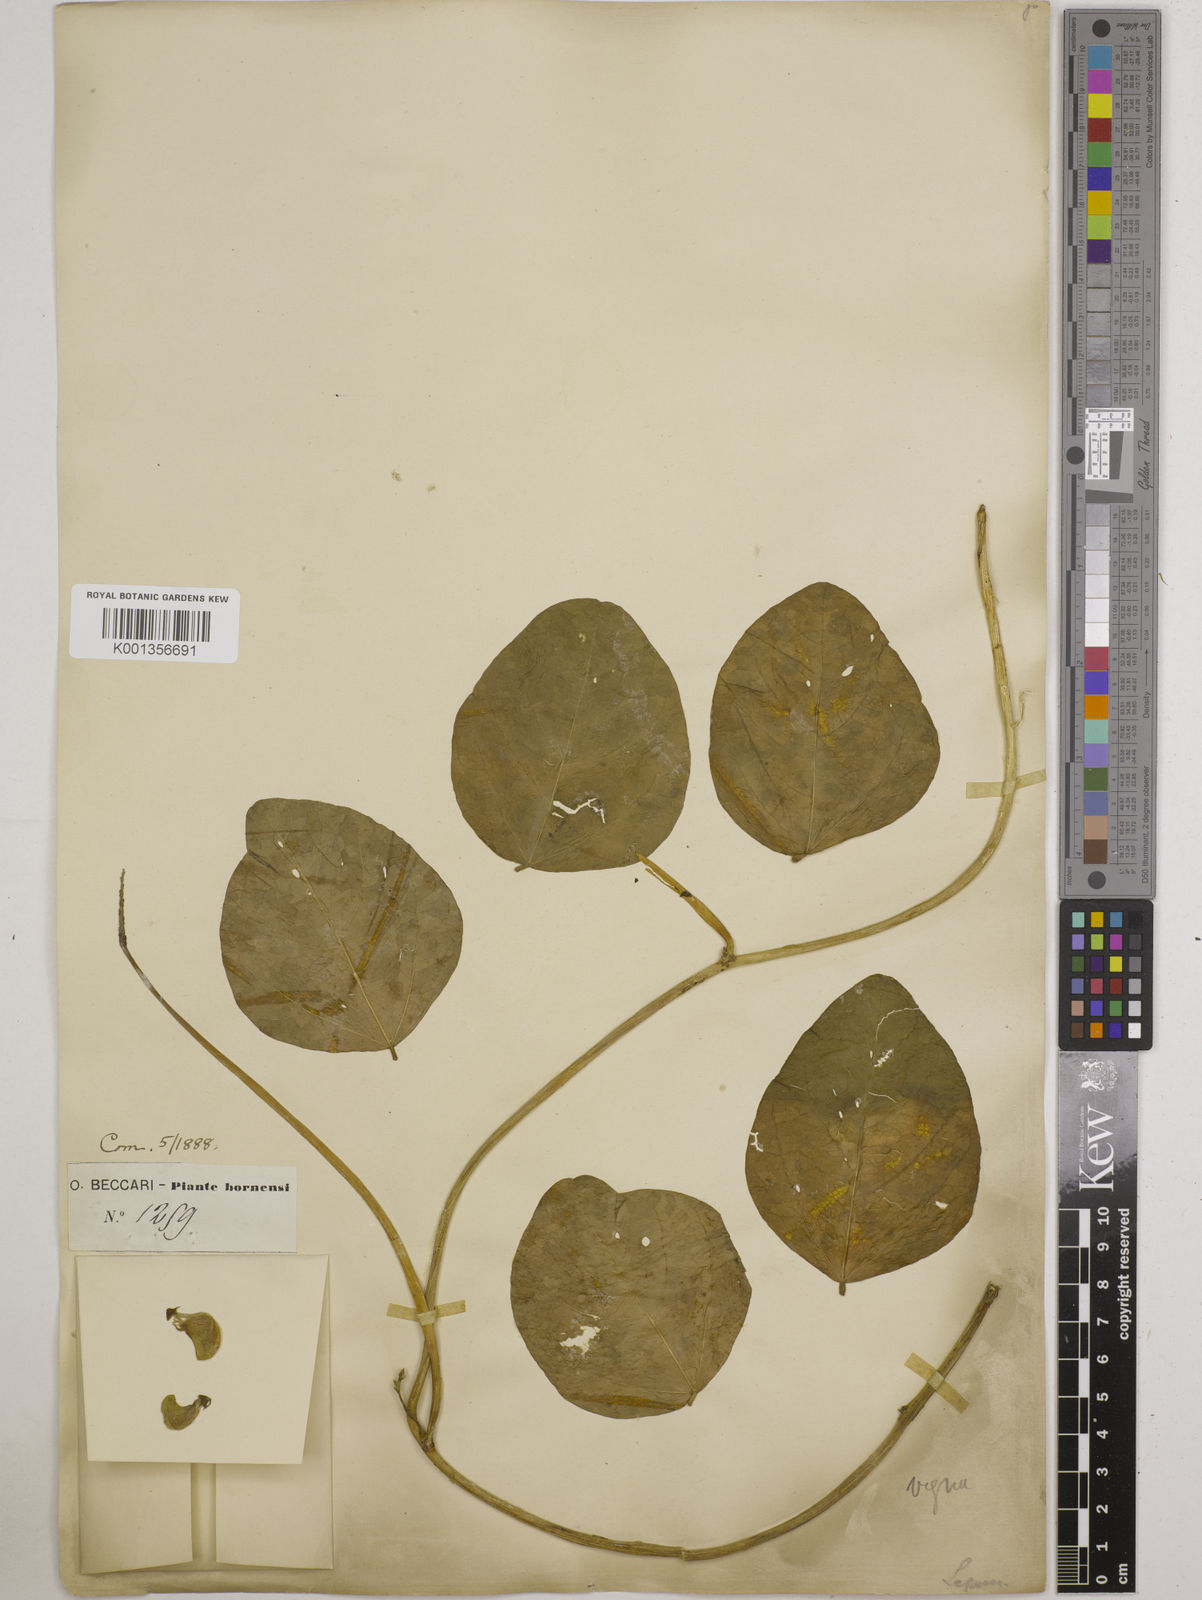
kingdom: Plantae
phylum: Tracheophyta
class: Magnoliopsida
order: Fabales
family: Fabaceae
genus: Vigna
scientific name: Vigna marina
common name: Dune-bean
